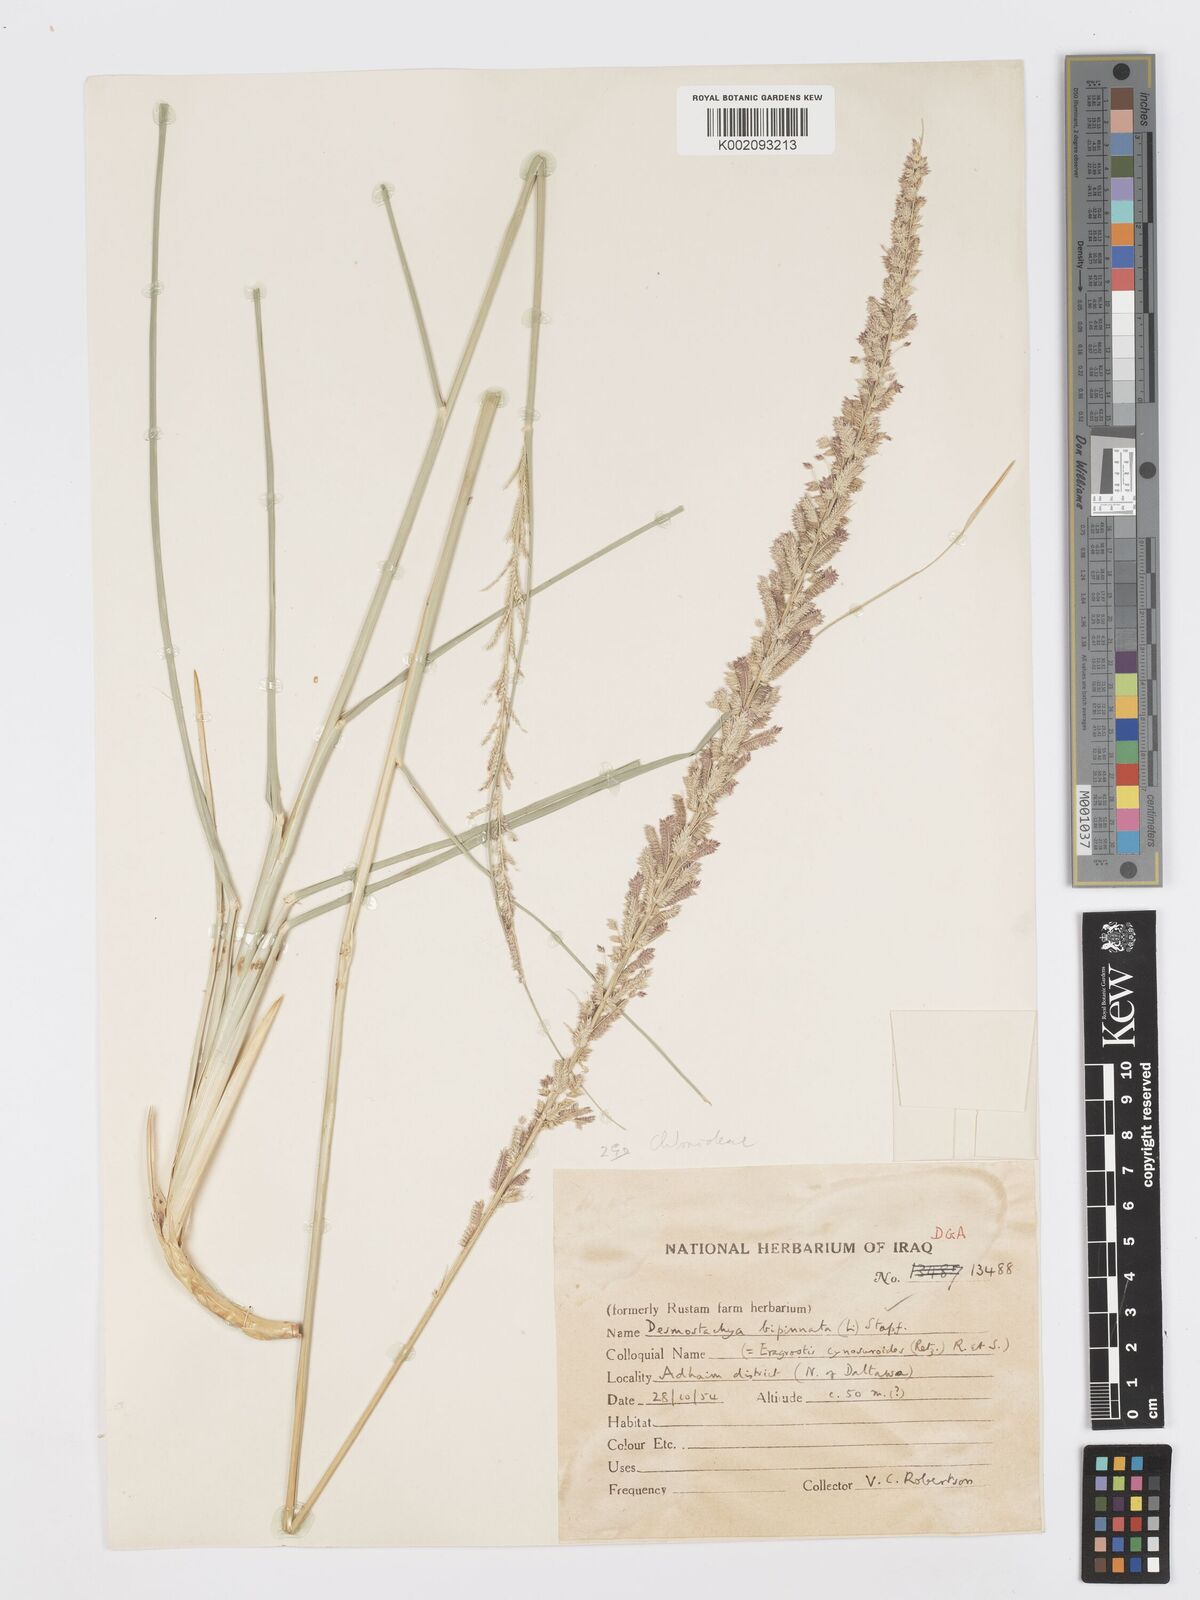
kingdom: Plantae
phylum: Tracheophyta
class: Liliopsida
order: Poales
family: Poaceae
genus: Desmostachya
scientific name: Desmostachya bipinnata
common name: Crowfoot grass
